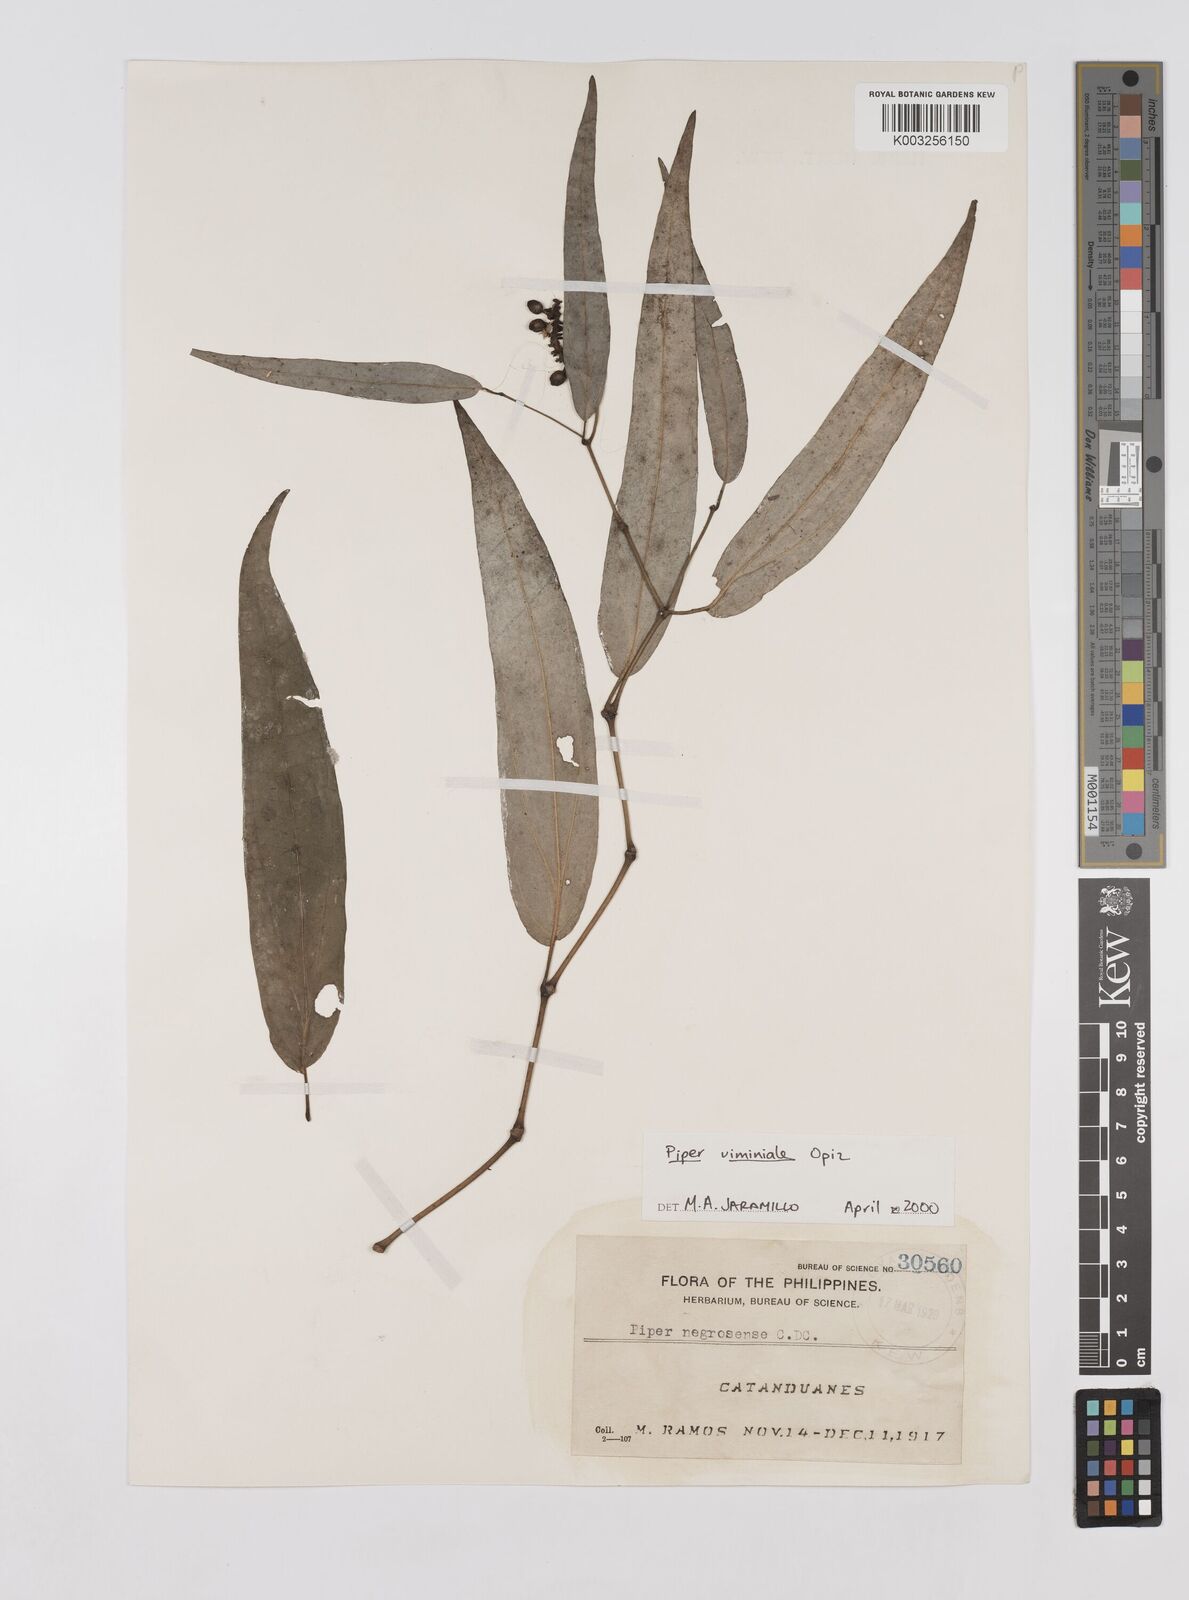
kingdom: Plantae
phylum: Tracheophyta
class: Magnoliopsida
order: Piperales
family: Piperaceae
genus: Piper
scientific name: Piper lanatum
